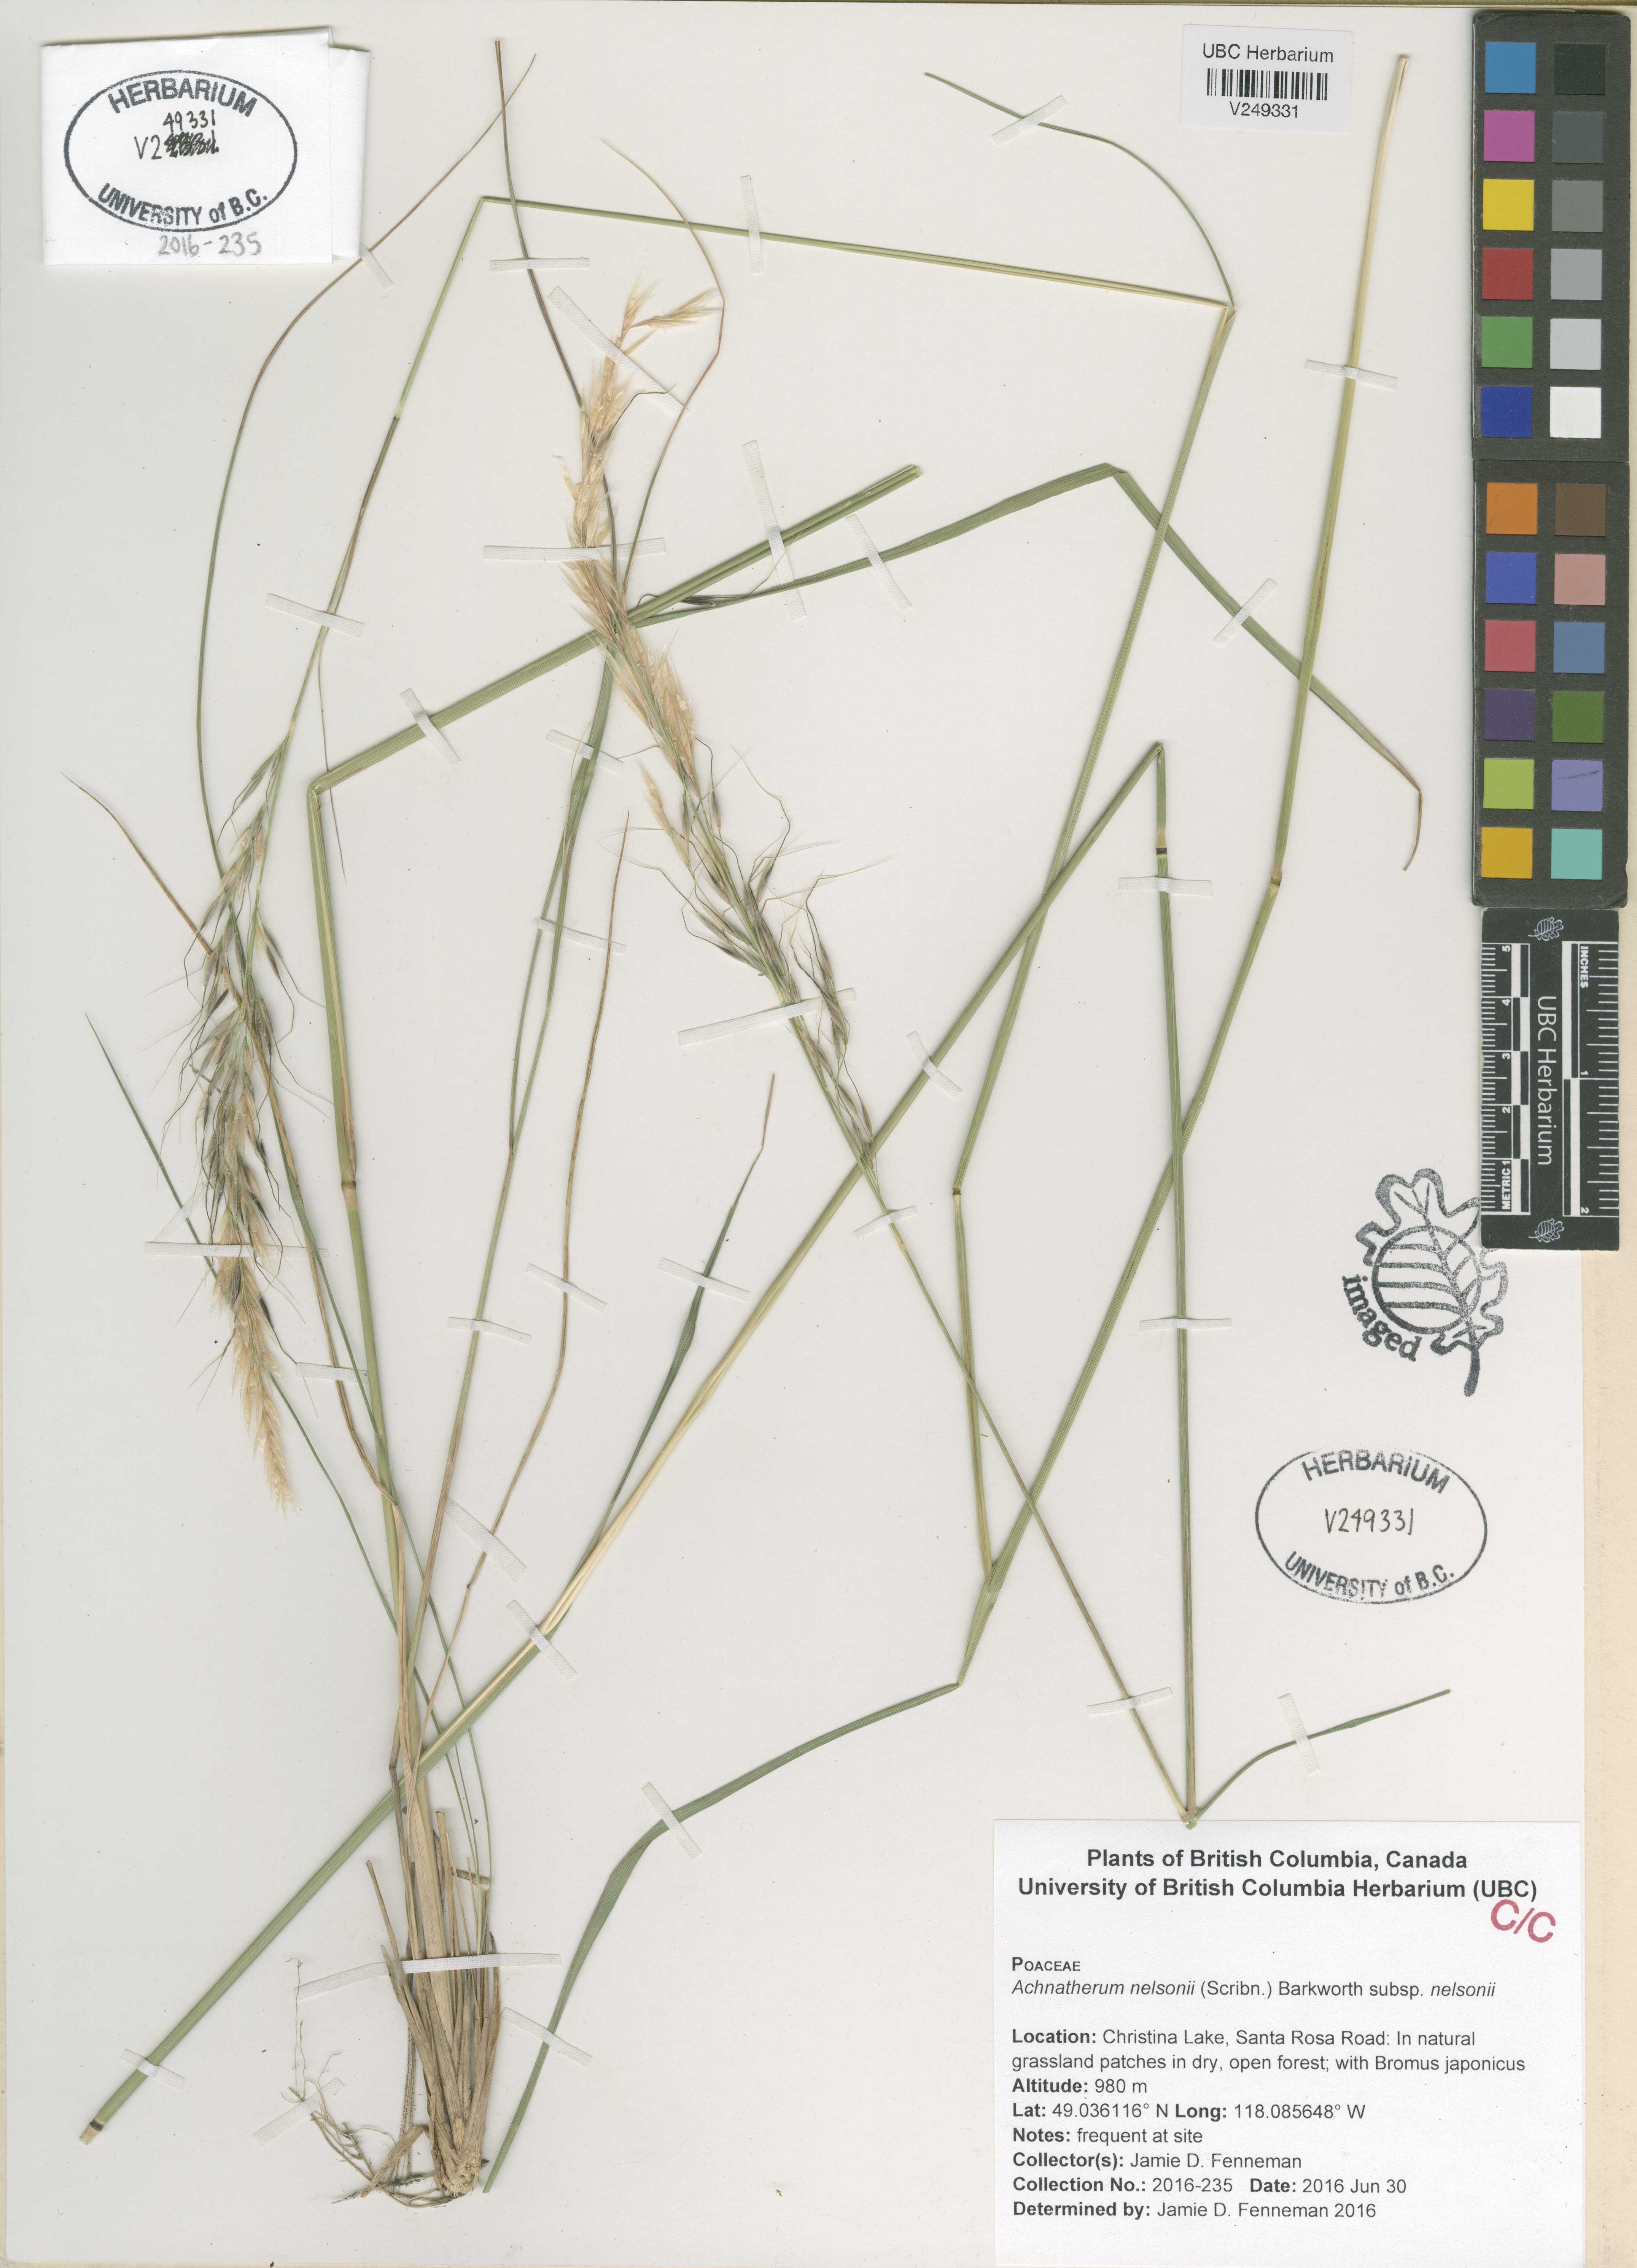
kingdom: Plantae
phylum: Tracheophyta
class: Liliopsida
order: Poales
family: Poaceae
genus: Eriocoma
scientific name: Eriocoma nelsonii
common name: Nelson's needlegrass
